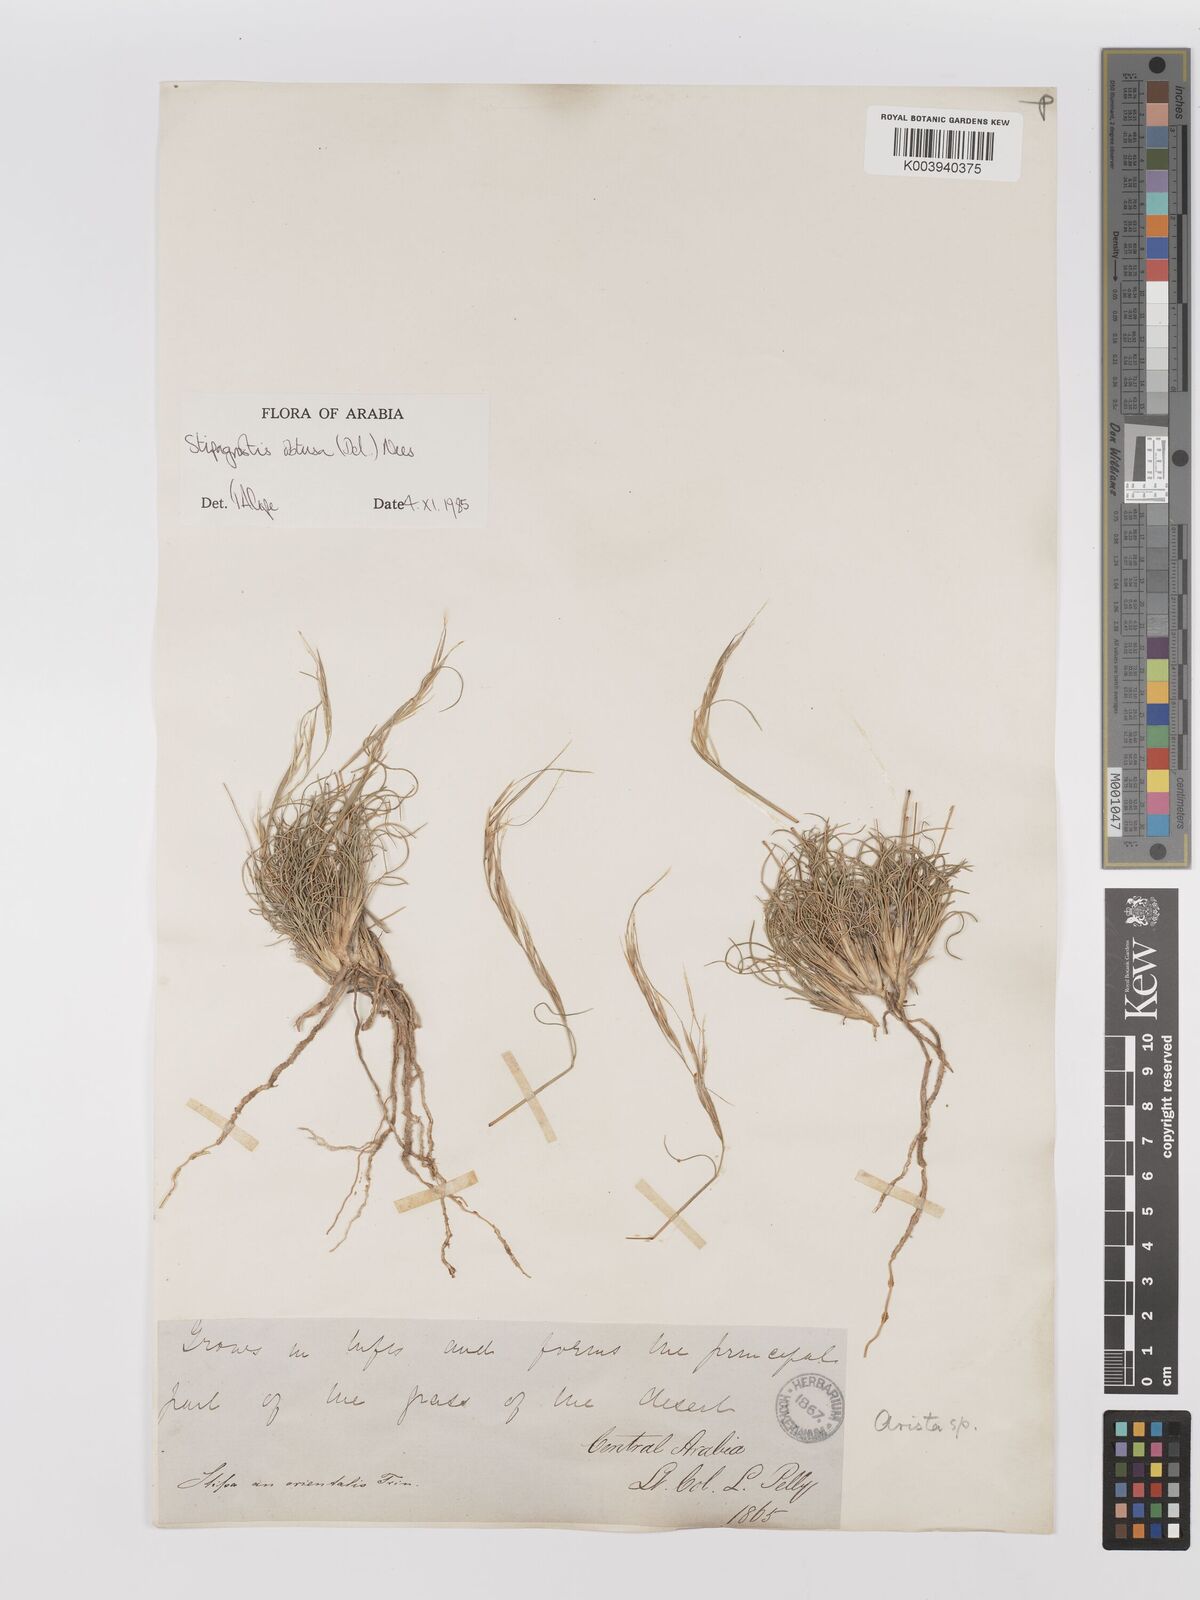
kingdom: Plantae
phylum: Tracheophyta
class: Liliopsida
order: Poales
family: Poaceae
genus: Stipagrostis
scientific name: Stipagrostis obtusa
